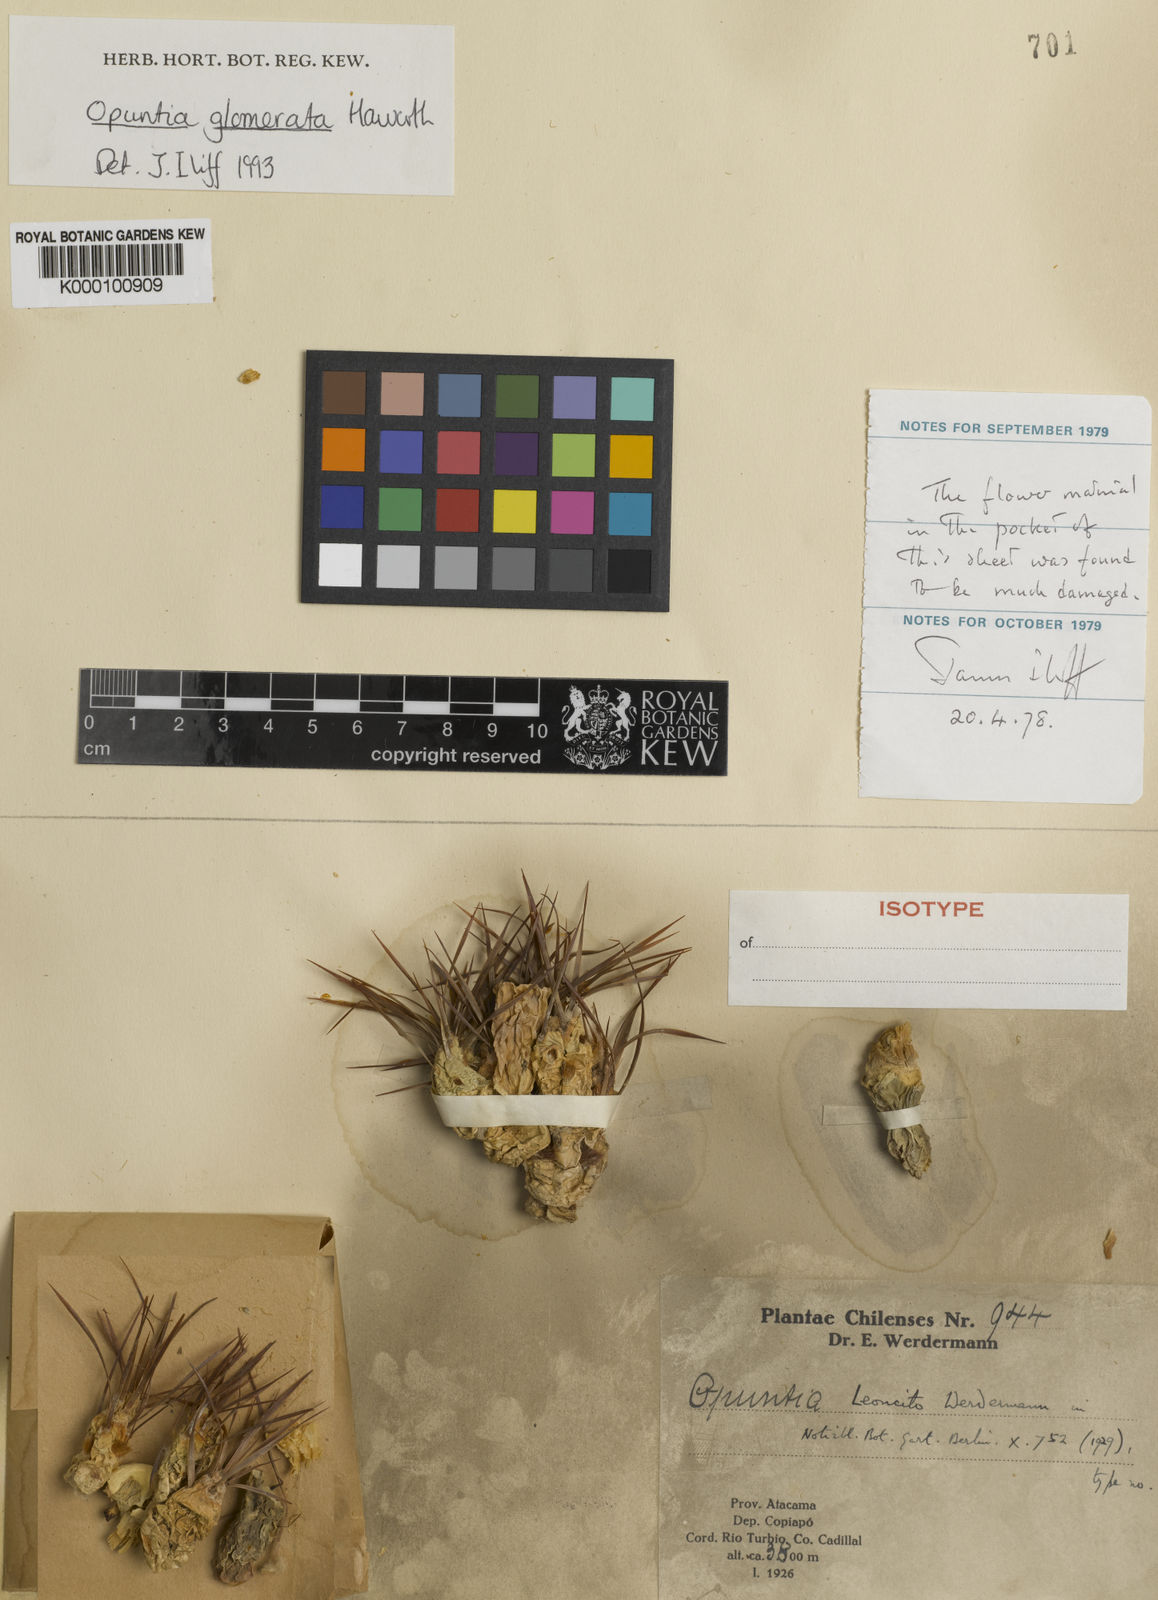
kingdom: Plantae
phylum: Tracheophyta
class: Magnoliopsida
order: Caryophyllales
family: Cactaceae
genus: Maihueniopsis
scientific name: Maihueniopsis glomerata
